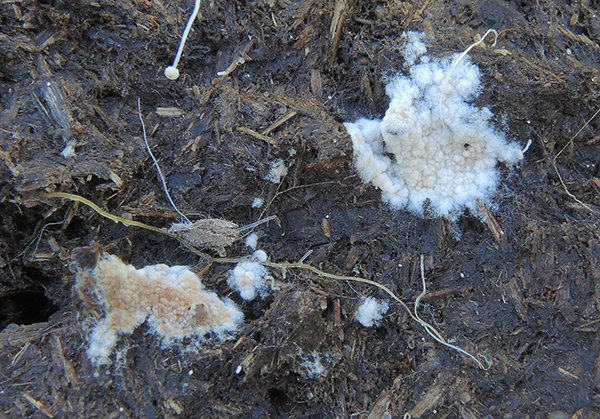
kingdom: Fungi
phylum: Basidiomycota
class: Agaricomycetes
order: Agaricales
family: Stephanosporaceae
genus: Lindtneria
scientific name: Lindtneria chordulata
